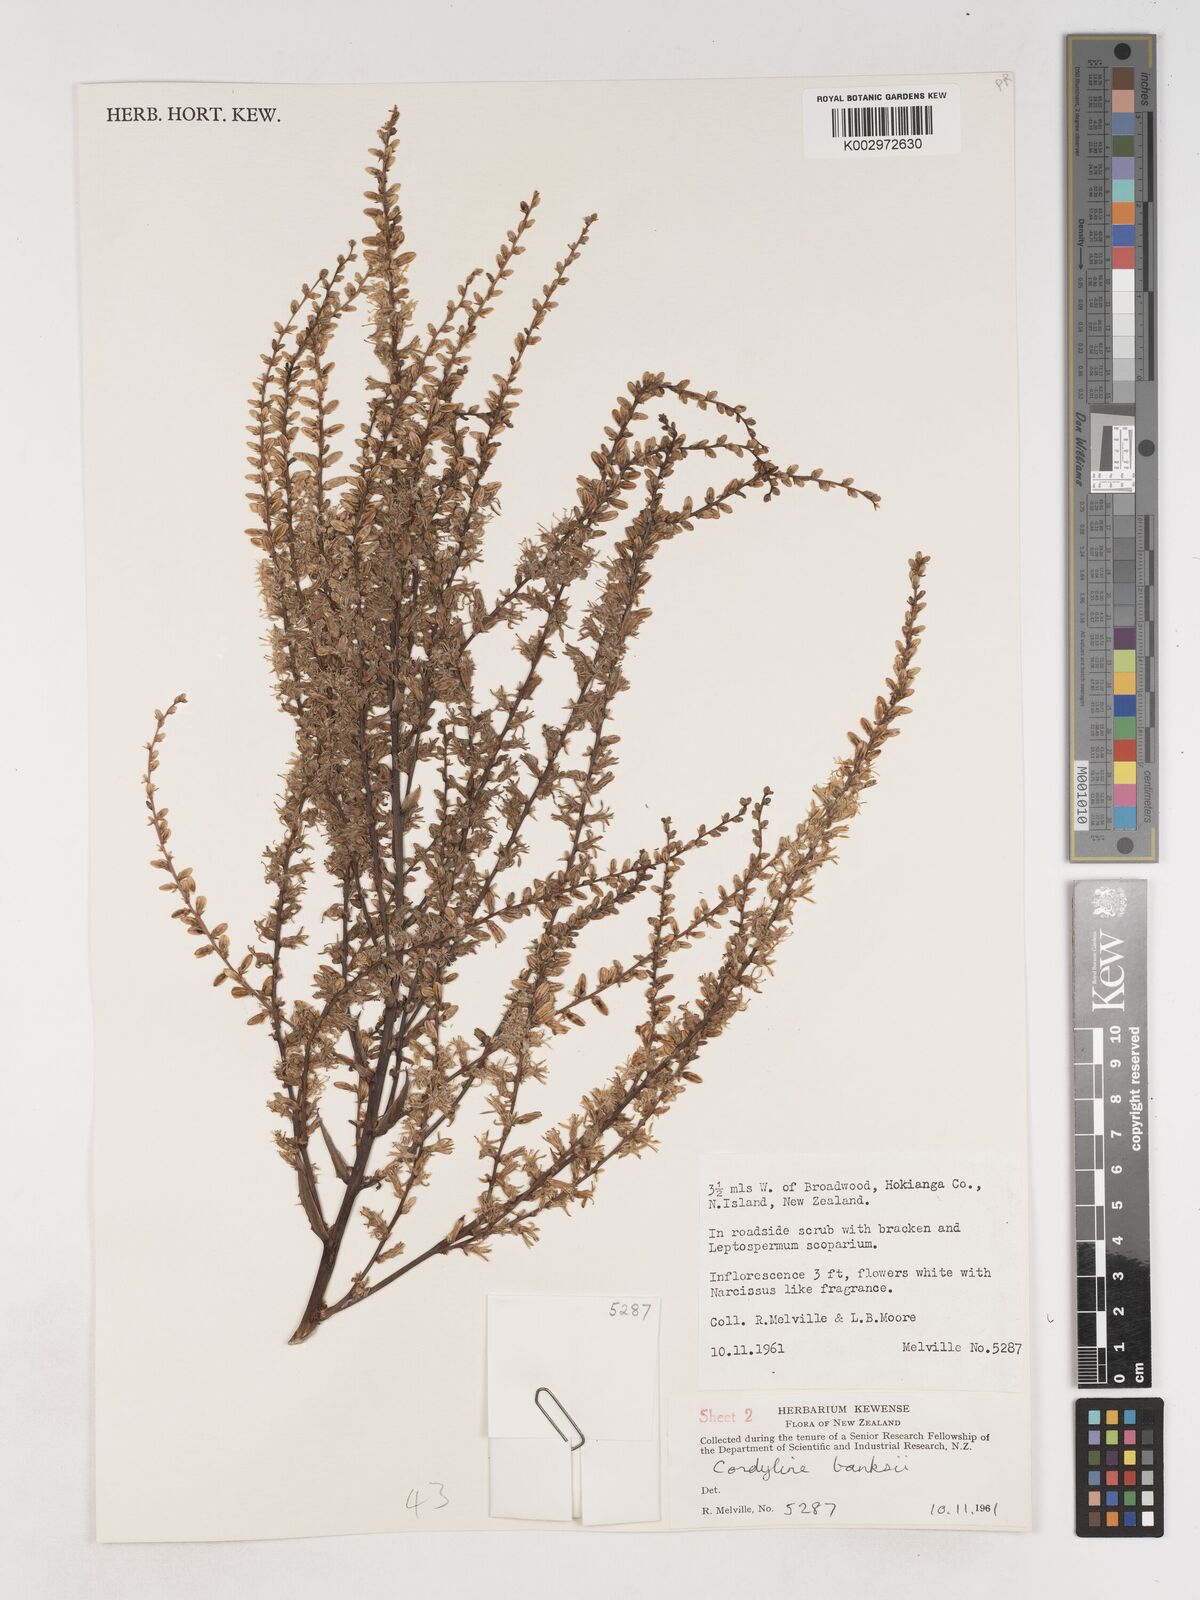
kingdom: Plantae
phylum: Tracheophyta
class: Liliopsida
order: Asparagales
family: Asparagaceae
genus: Cordyline
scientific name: Cordyline banksii
